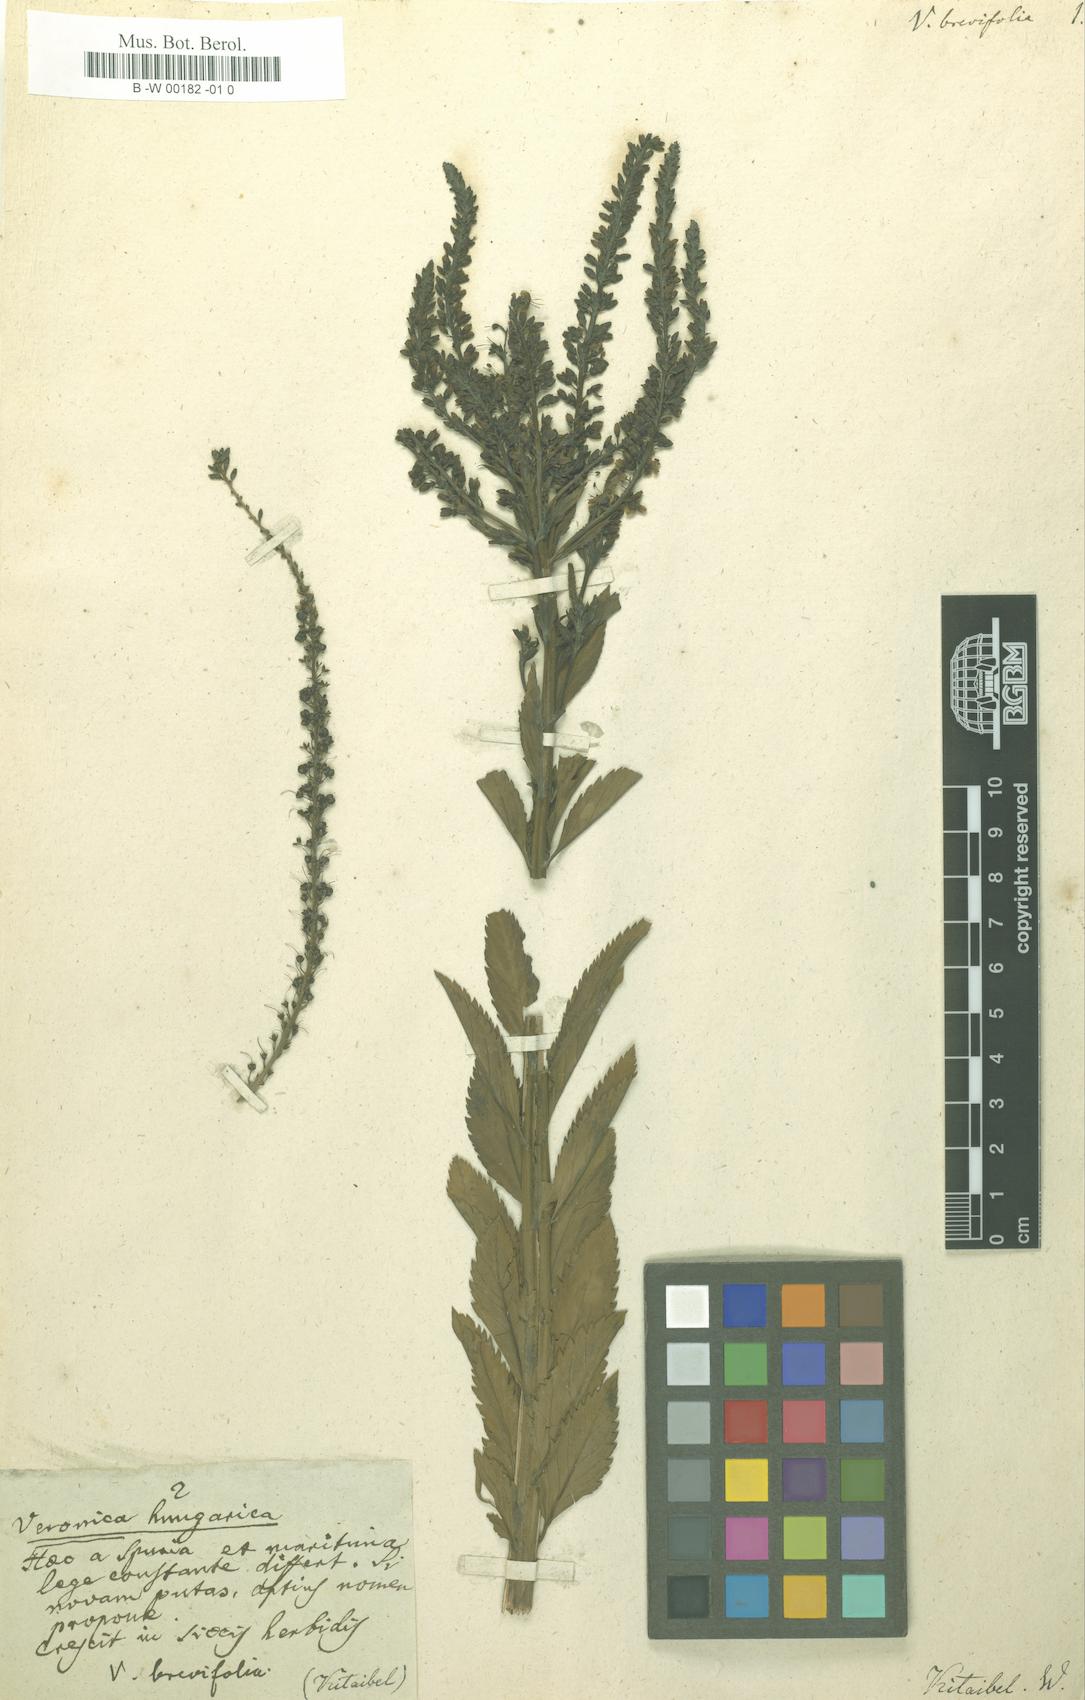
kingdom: Plantae
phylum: Tracheophyta
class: Magnoliopsida
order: Lamiales
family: Plantaginaceae
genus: Veronica
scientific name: Veronica
